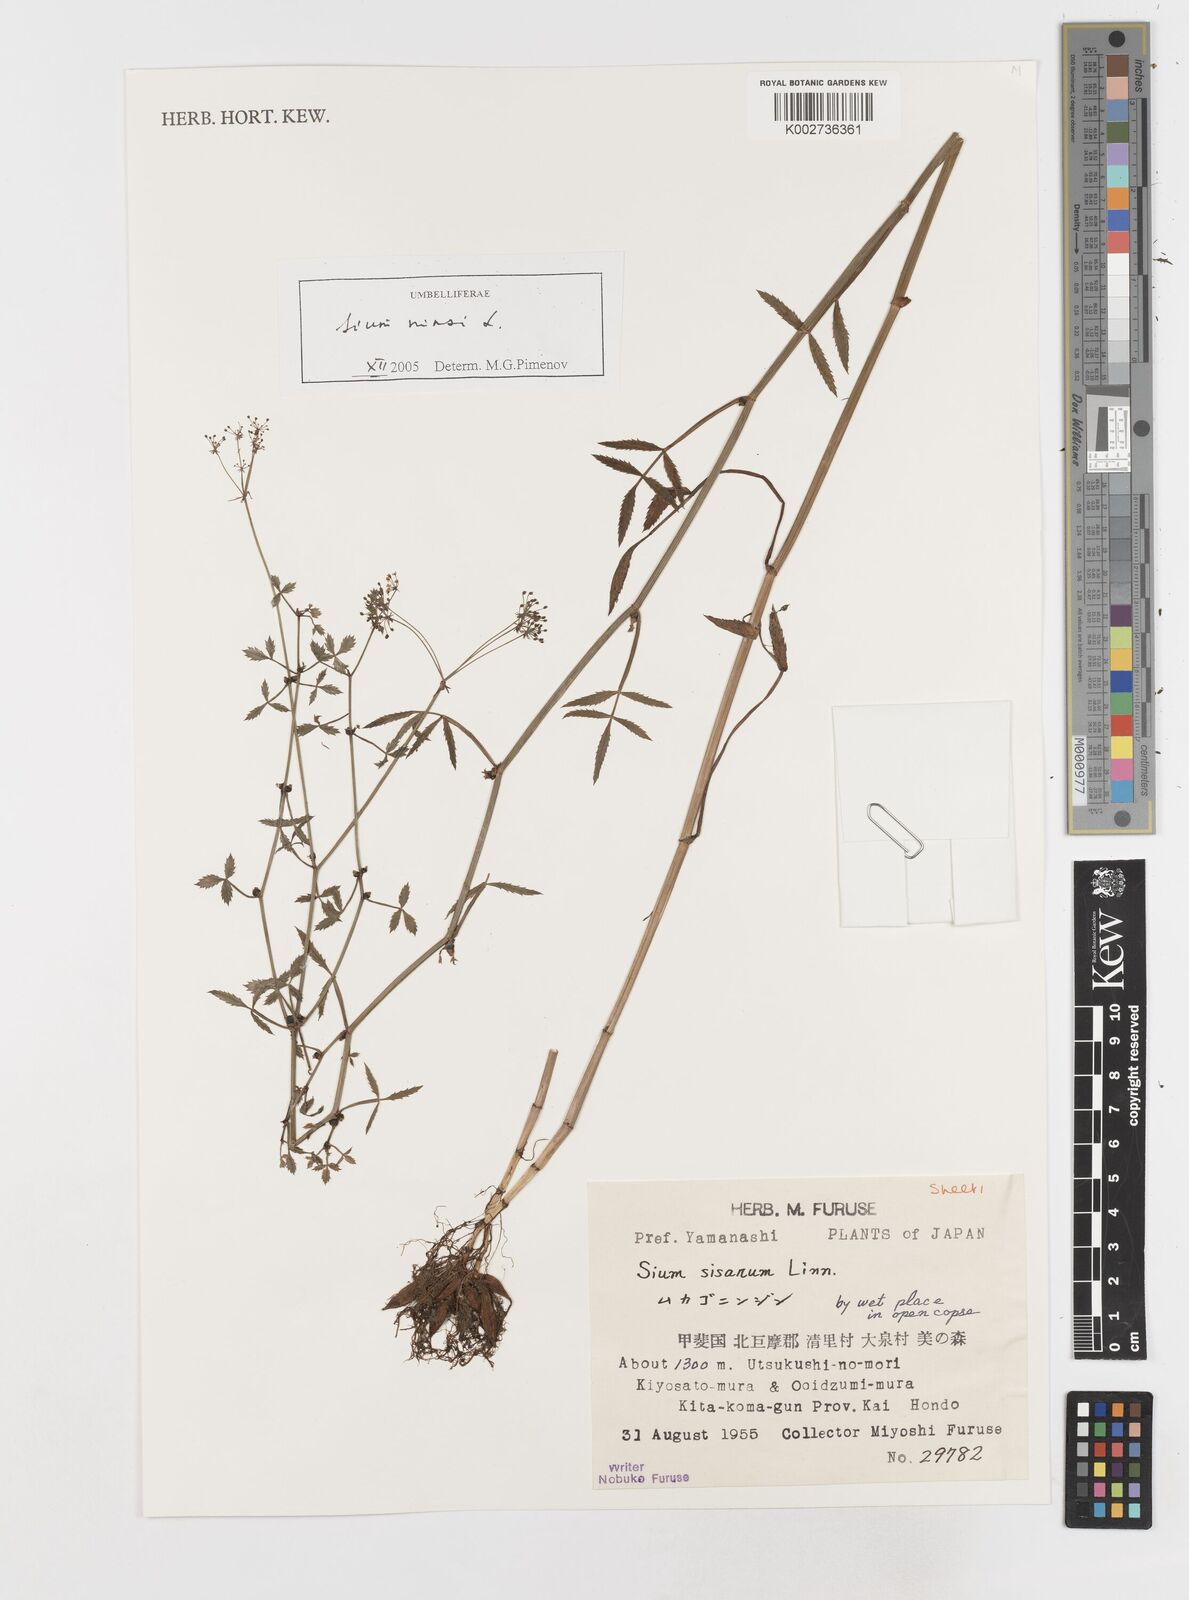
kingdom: Plantae
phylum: Tracheophyta
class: Magnoliopsida
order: Apiales
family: Apiaceae
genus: Sium
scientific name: Sium ninsi
